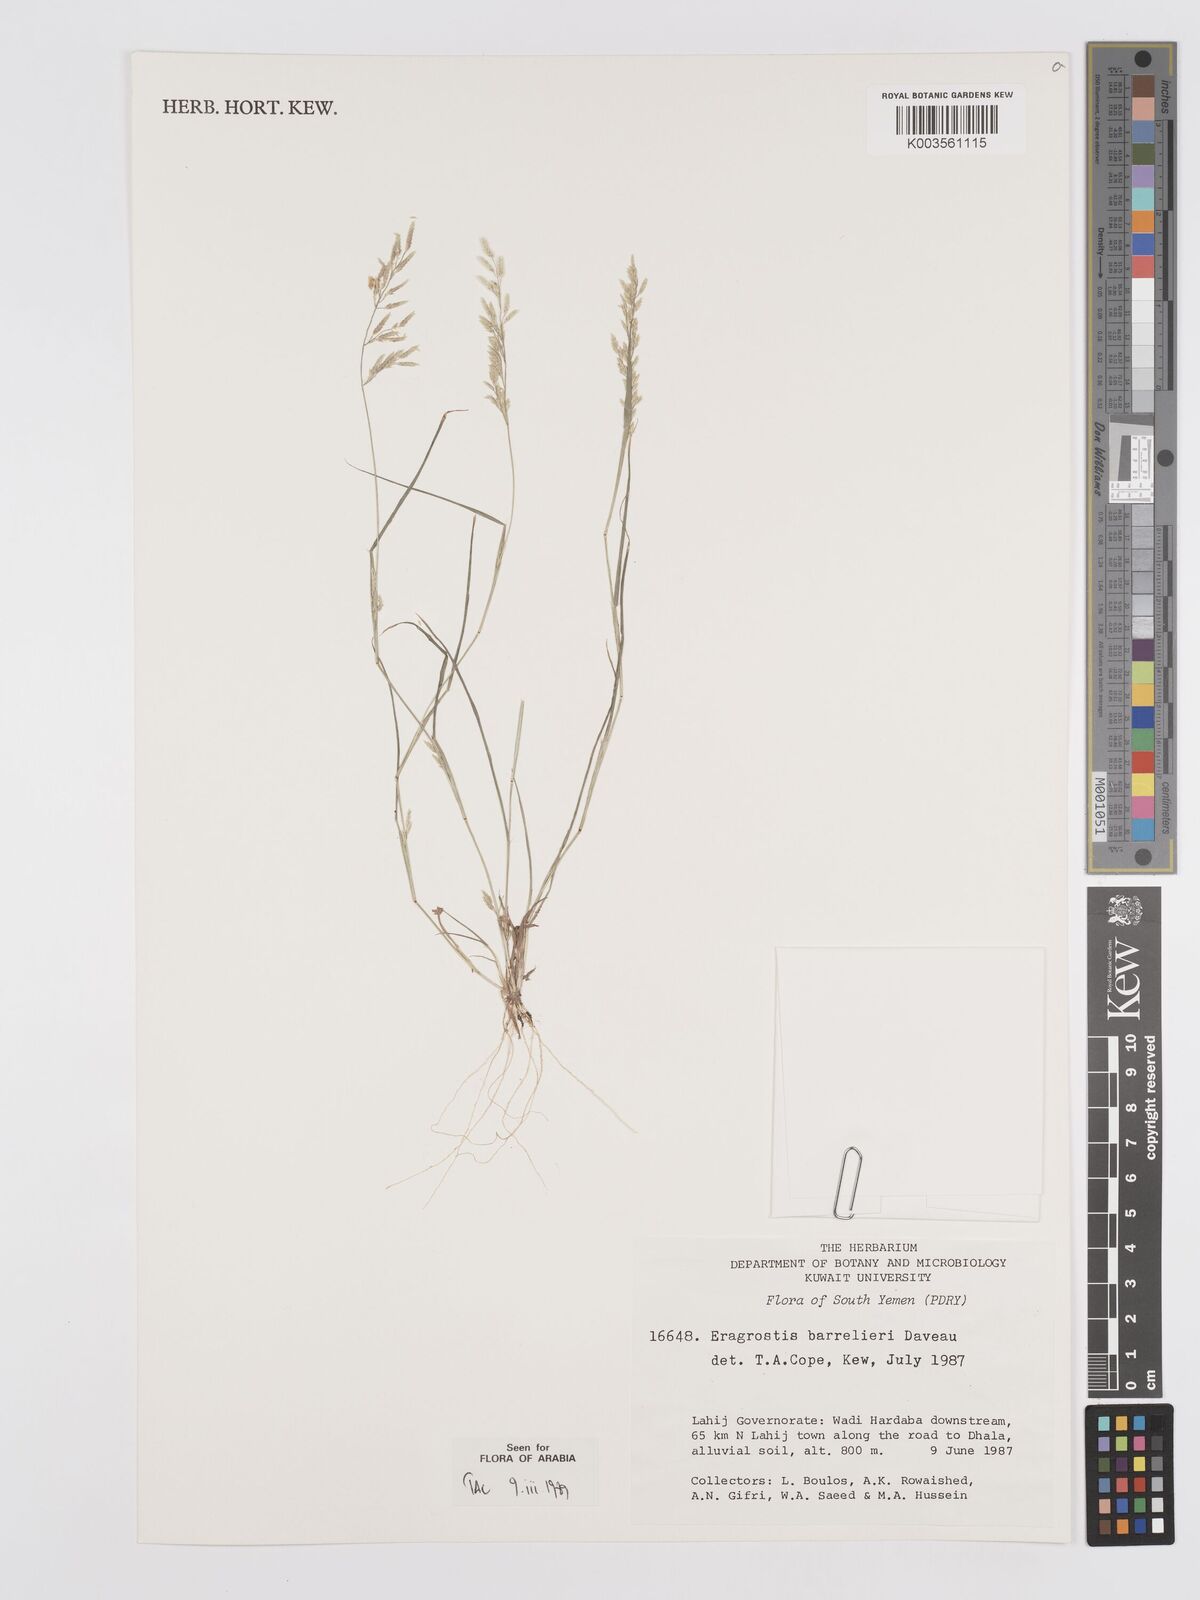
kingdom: Plantae
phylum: Tracheophyta
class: Liliopsida
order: Poales
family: Poaceae
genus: Eragrostis
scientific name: Eragrostis barrelieri
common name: Mediterranean lovegrass
